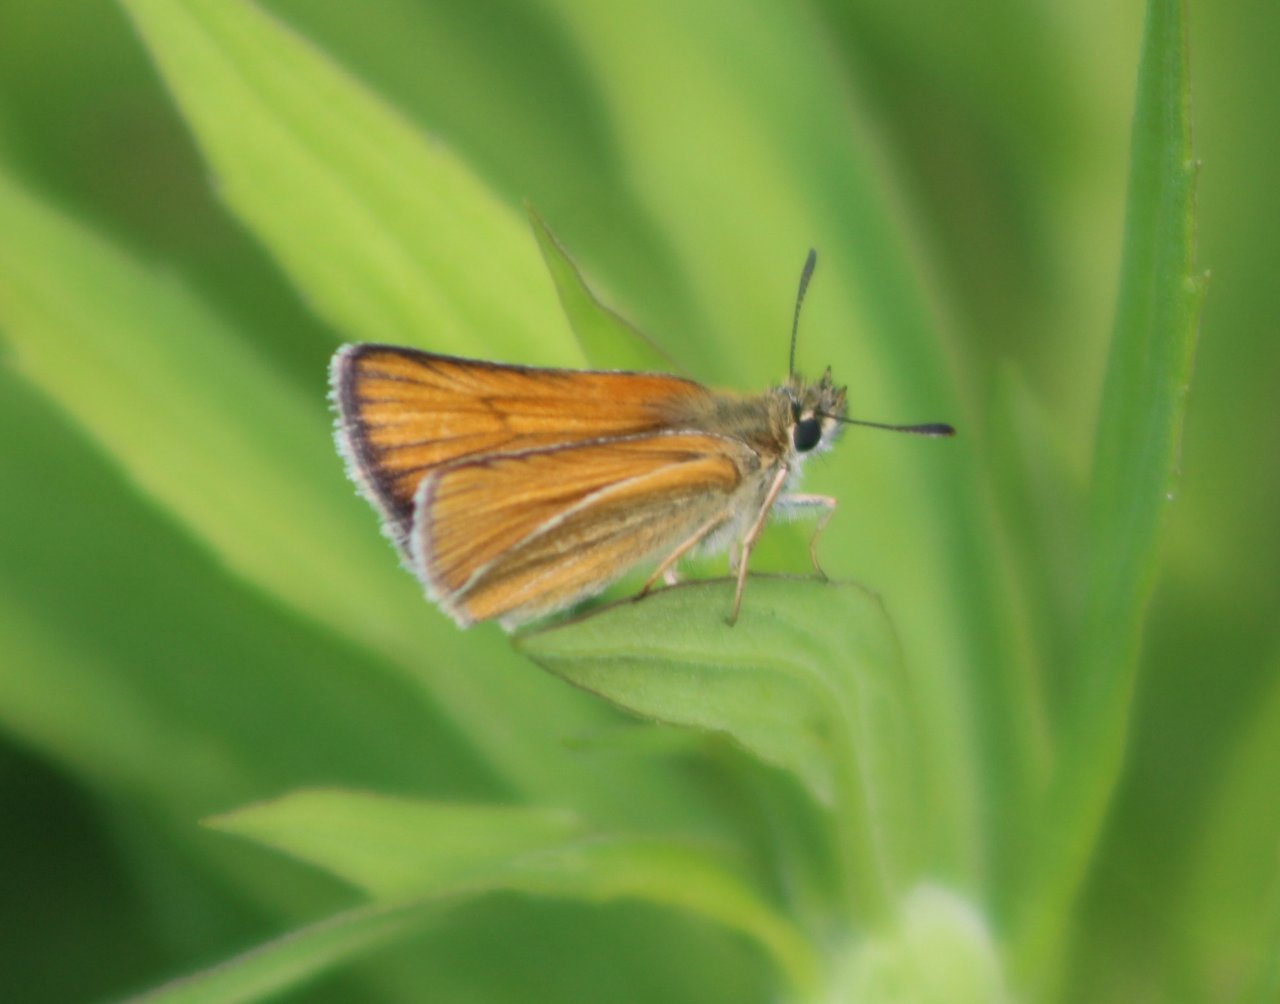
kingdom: Animalia
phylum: Arthropoda
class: Insecta
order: Lepidoptera
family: Hesperiidae
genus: Thymelicus
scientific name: Thymelicus lineola
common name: European Skipper
